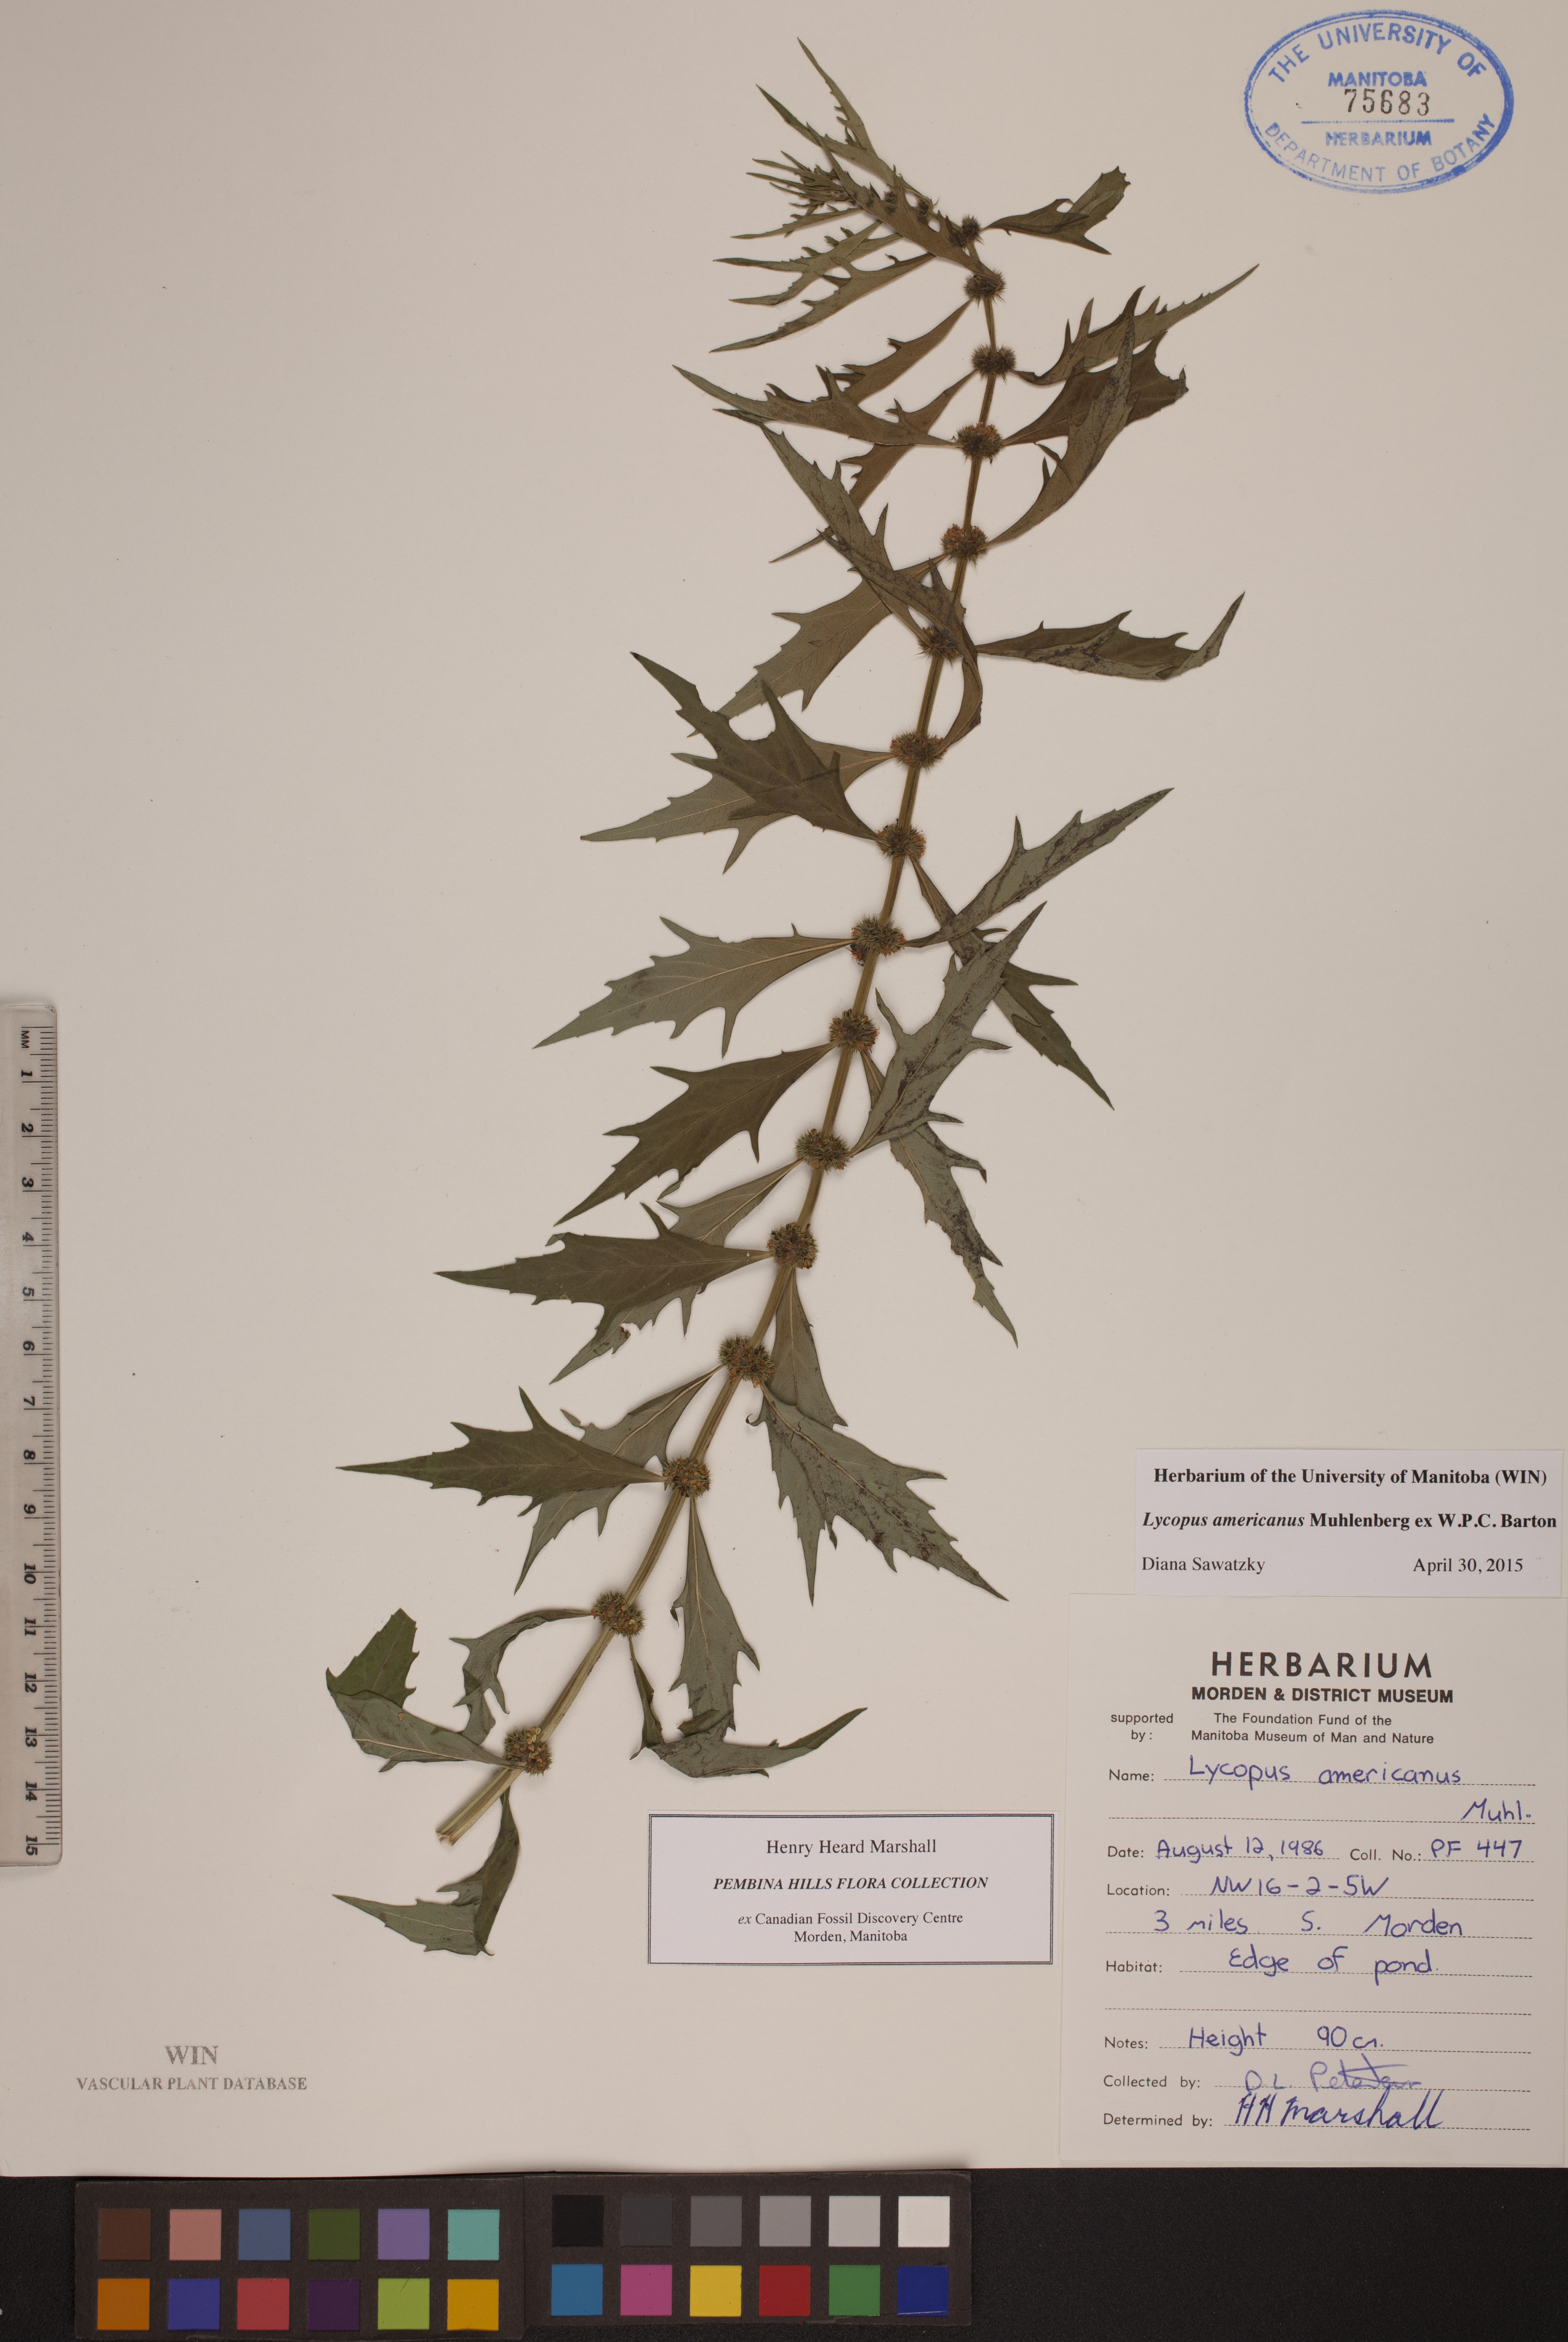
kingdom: Plantae
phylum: Tracheophyta
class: Magnoliopsida
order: Lamiales
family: Lamiaceae
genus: Lycopus
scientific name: Lycopus americanus
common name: American bugleweed
